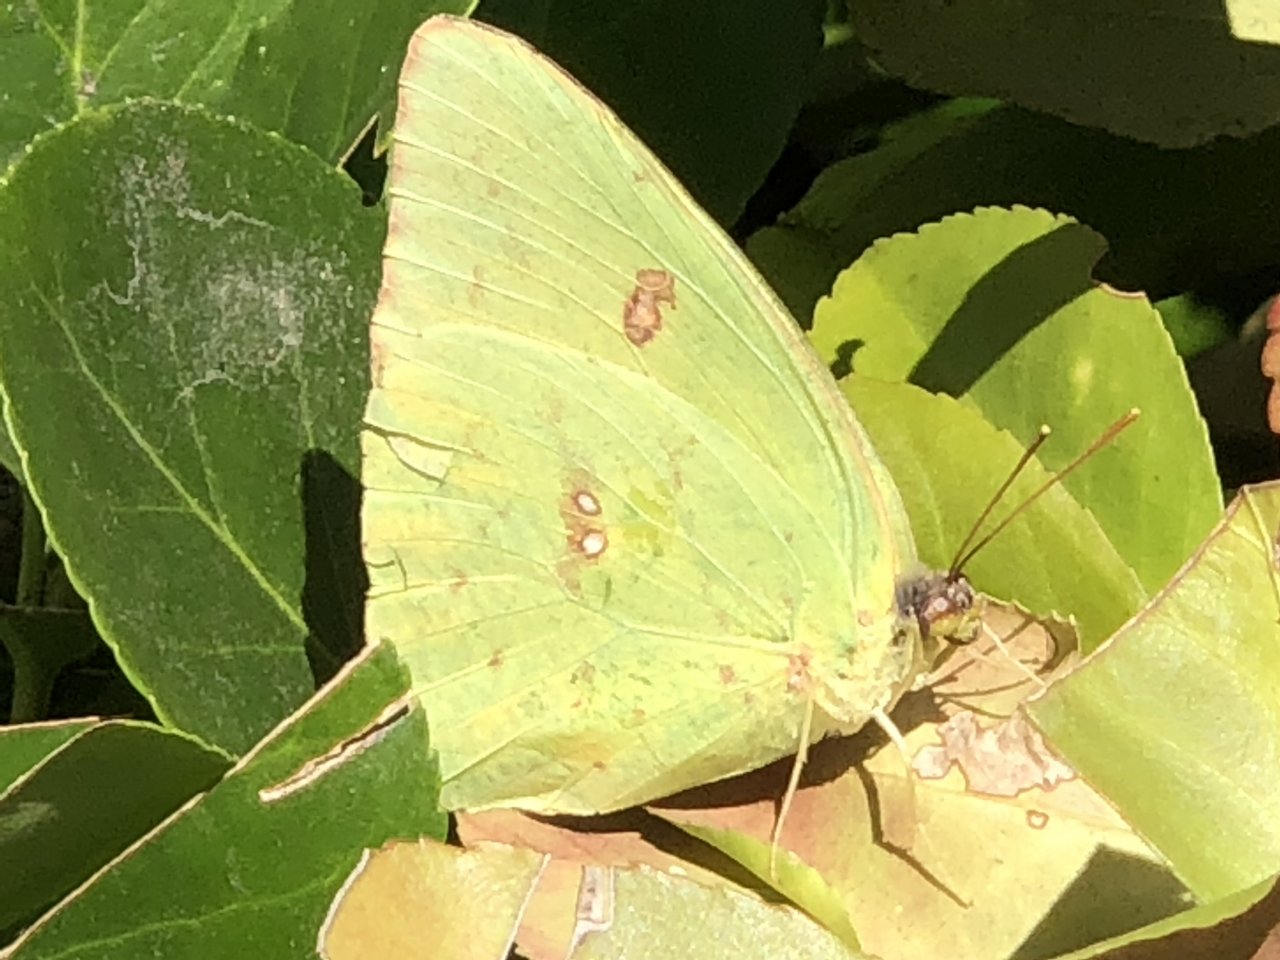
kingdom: Animalia
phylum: Arthropoda
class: Insecta
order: Lepidoptera
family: Pieridae
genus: Phoebis
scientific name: Phoebis sennae
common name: Cloudless Sulphur
